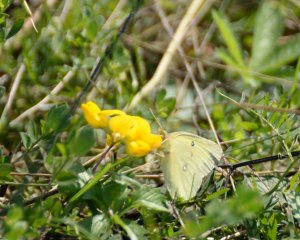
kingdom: Animalia
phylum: Arthropoda
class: Insecta
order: Lepidoptera
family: Pieridae
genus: Colias
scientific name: Colias philodice
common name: Clouded Sulphur
